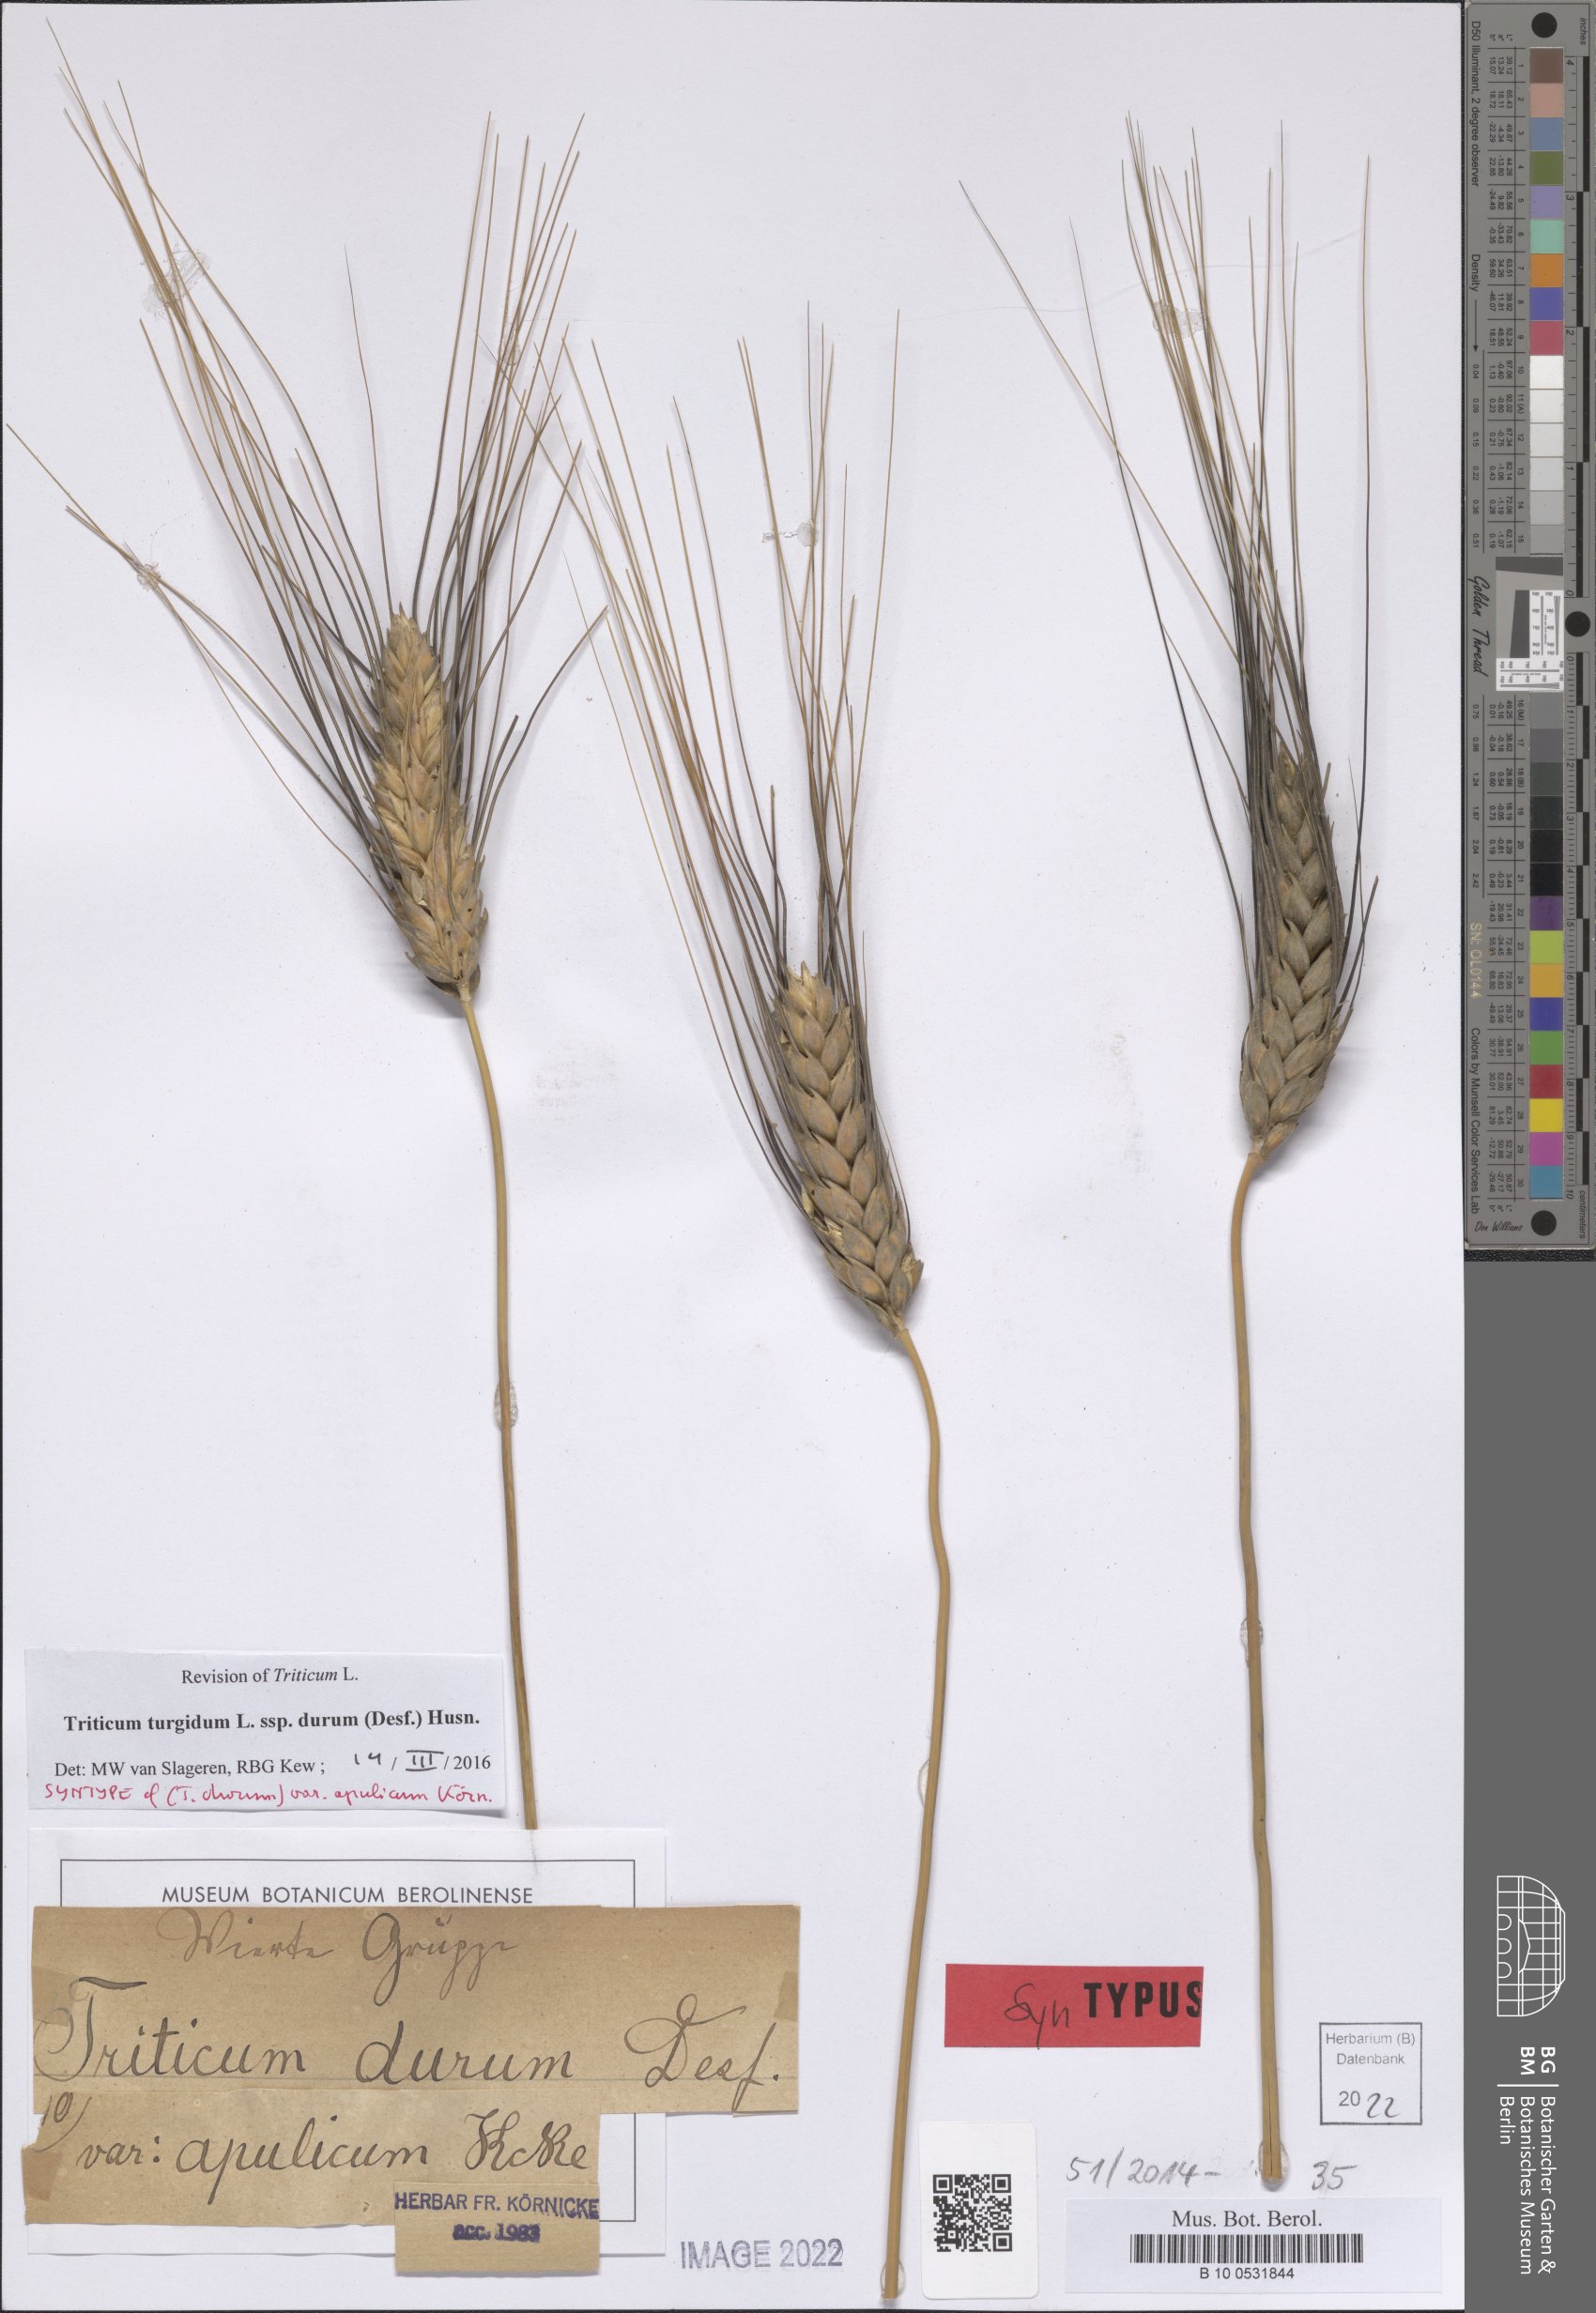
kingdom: Plantae
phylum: Tracheophyta
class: Liliopsida
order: Poales
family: Poaceae
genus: Triticum
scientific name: Triticum turgidum
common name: Rivet wheat
